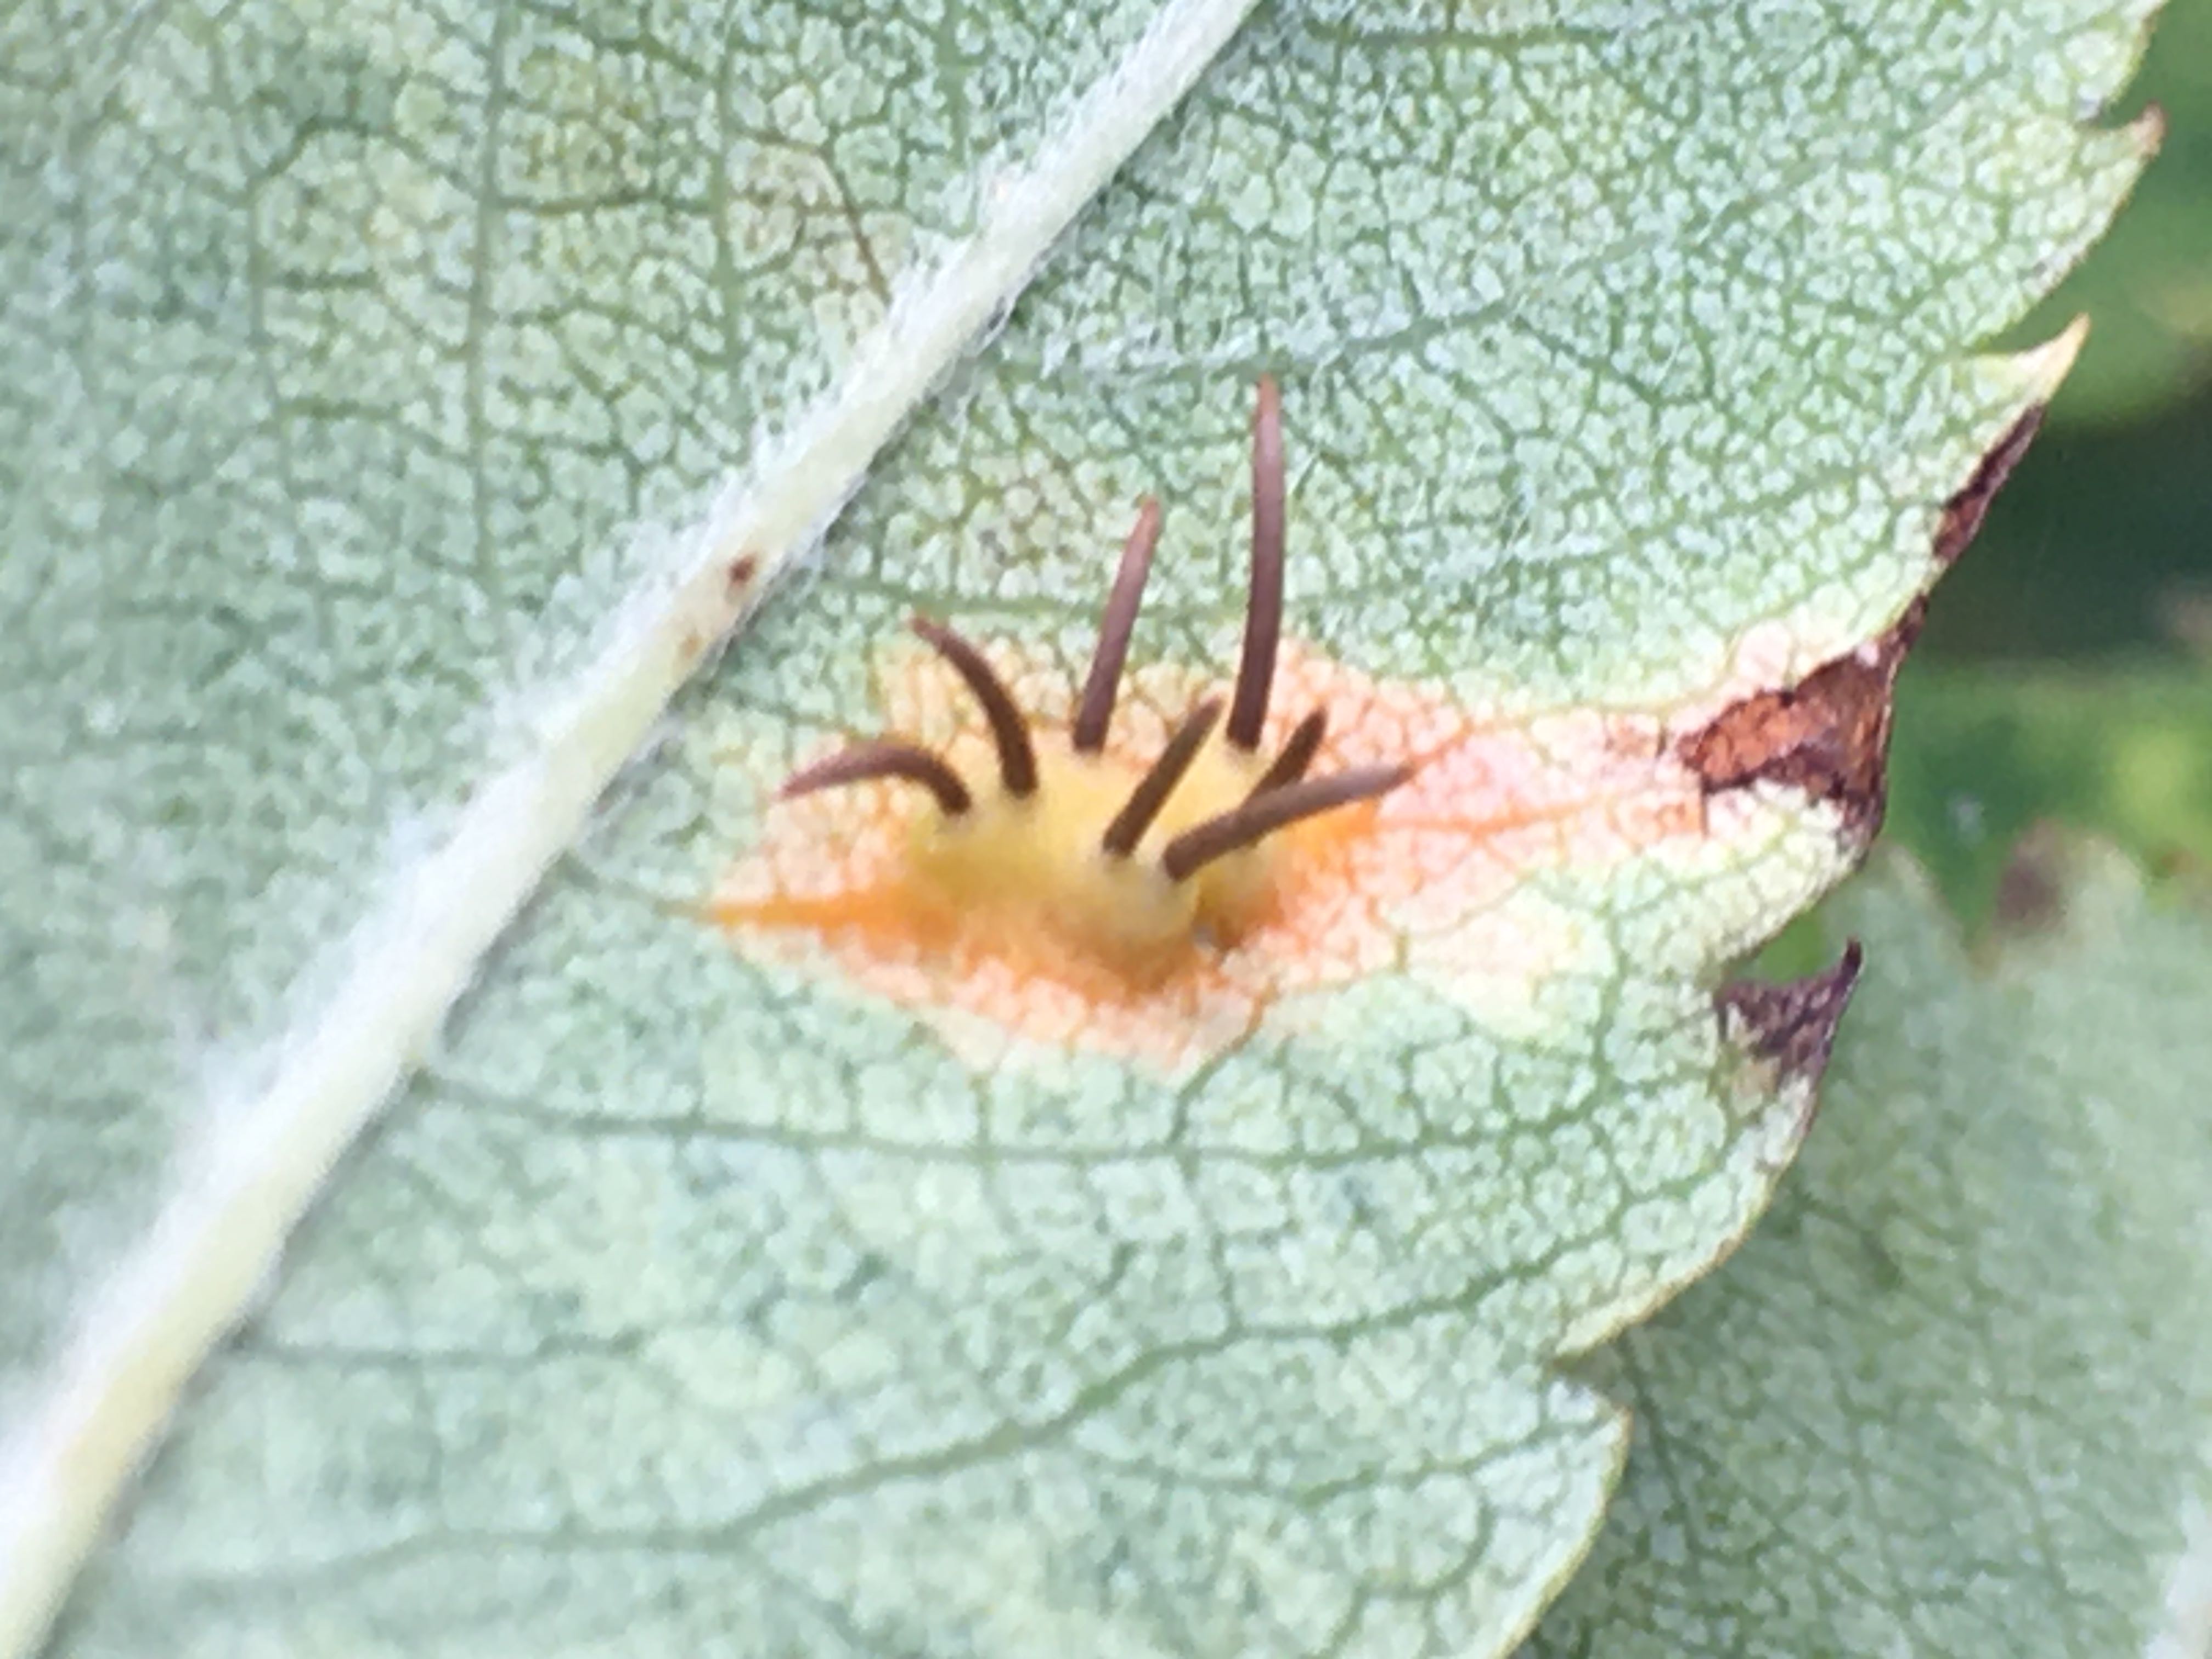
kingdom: Fungi
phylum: Basidiomycota
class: Pucciniomycetes
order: Pucciniales
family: Gymnosporangiaceae
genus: Gymnosporangium
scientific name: Gymnosporangium cornutum
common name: rønnehorn-bævrerust
